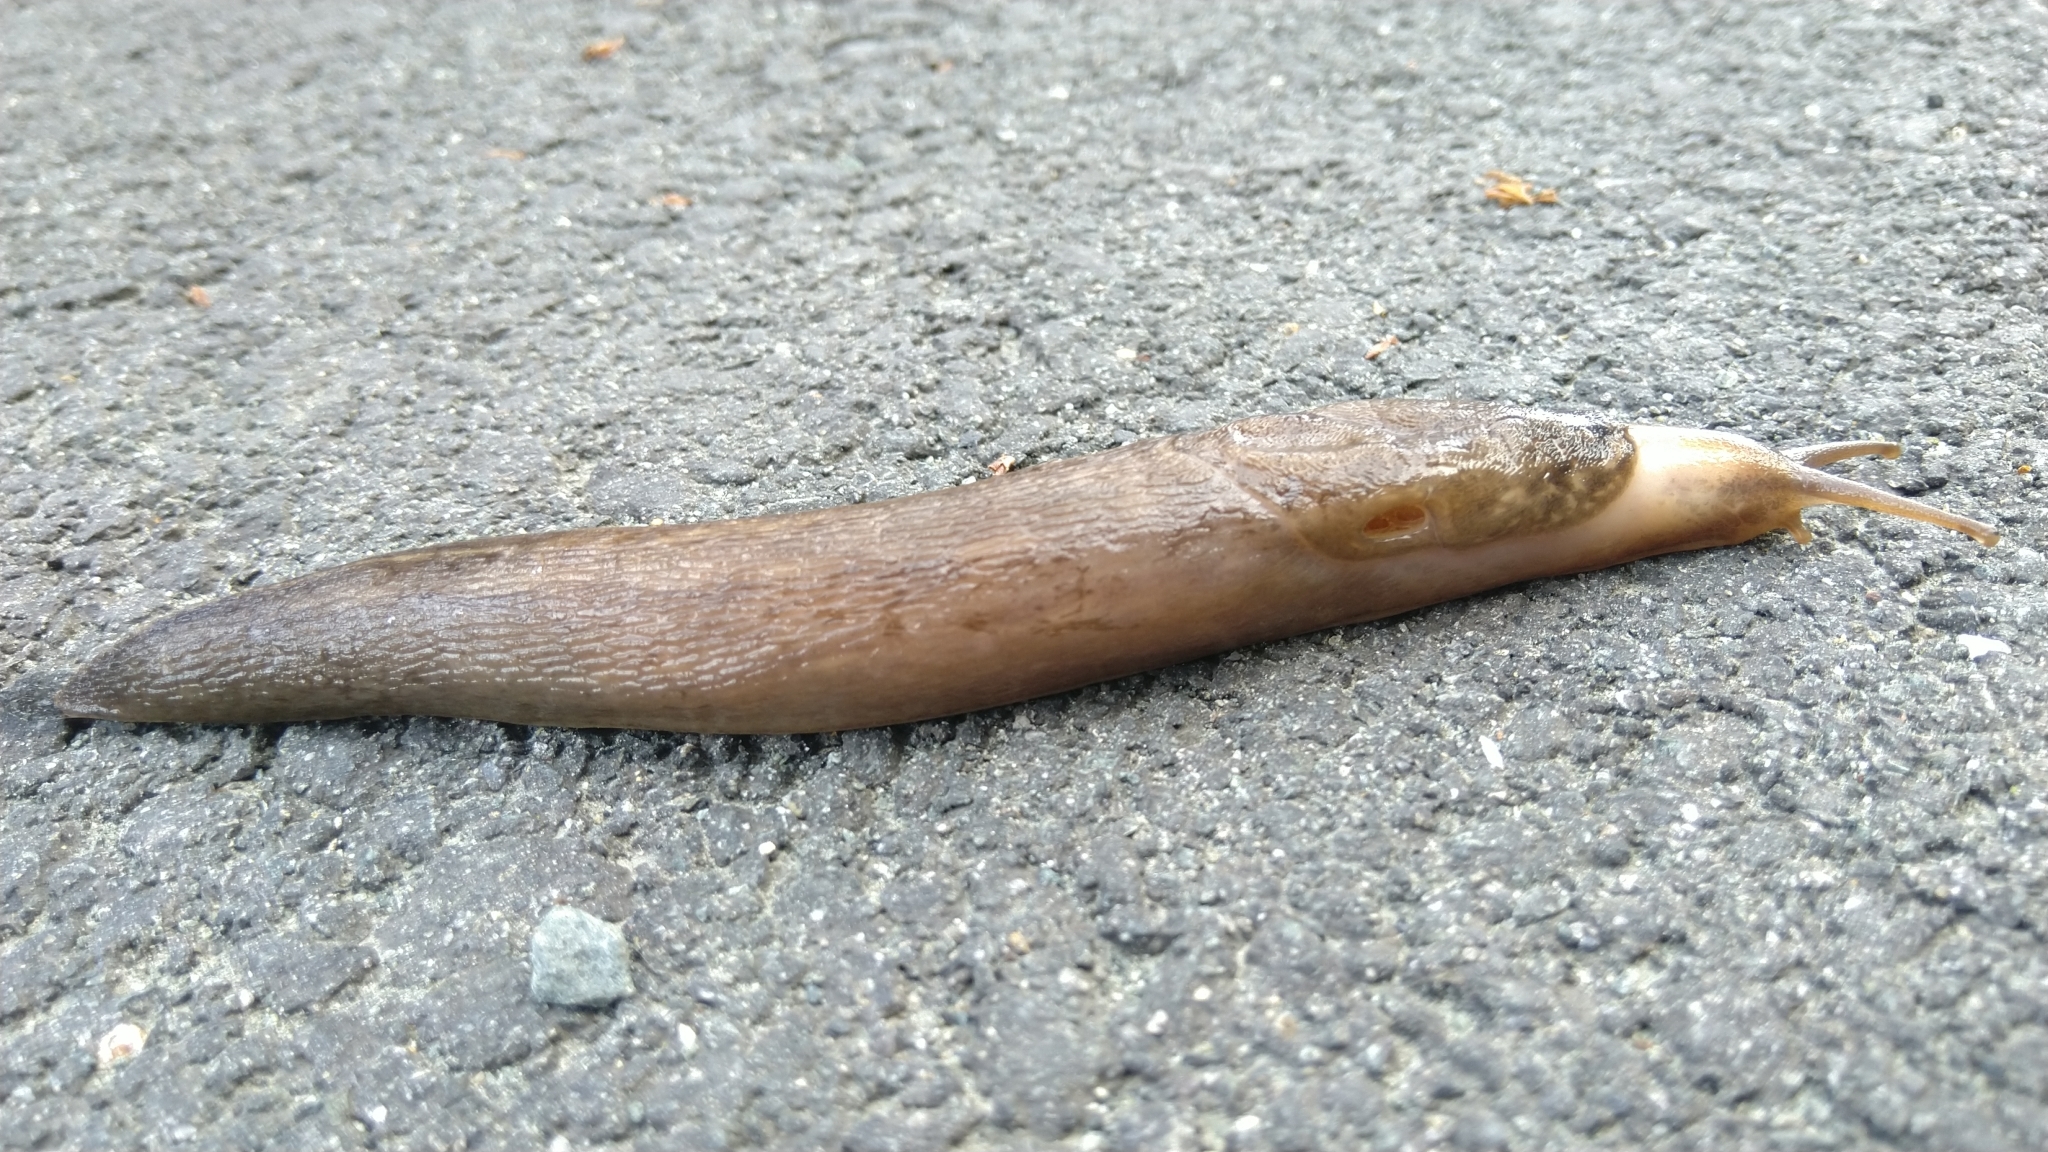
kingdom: Animalia
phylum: Mollusca
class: Gastropoda
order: Stylommatophora
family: Limacidae
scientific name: Limacidae
